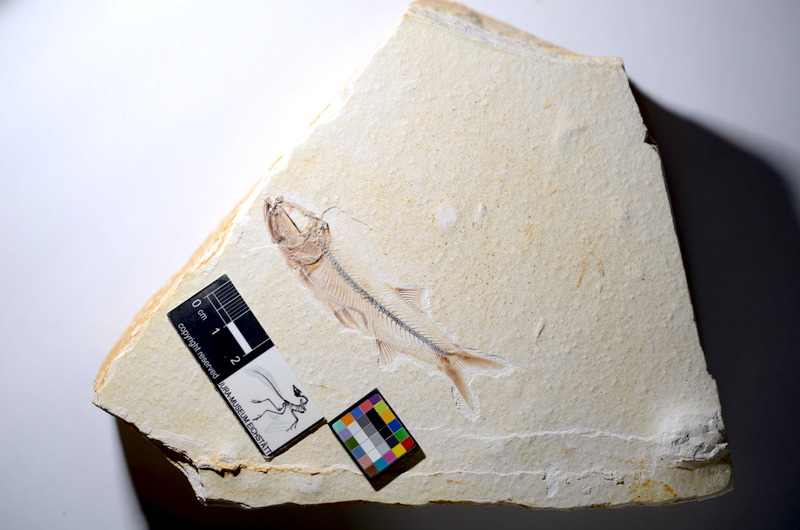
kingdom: Animalia
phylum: Chordata
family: Ascalaboidae
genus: Ebertichthys
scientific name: Ebertichthys ettlingensis
